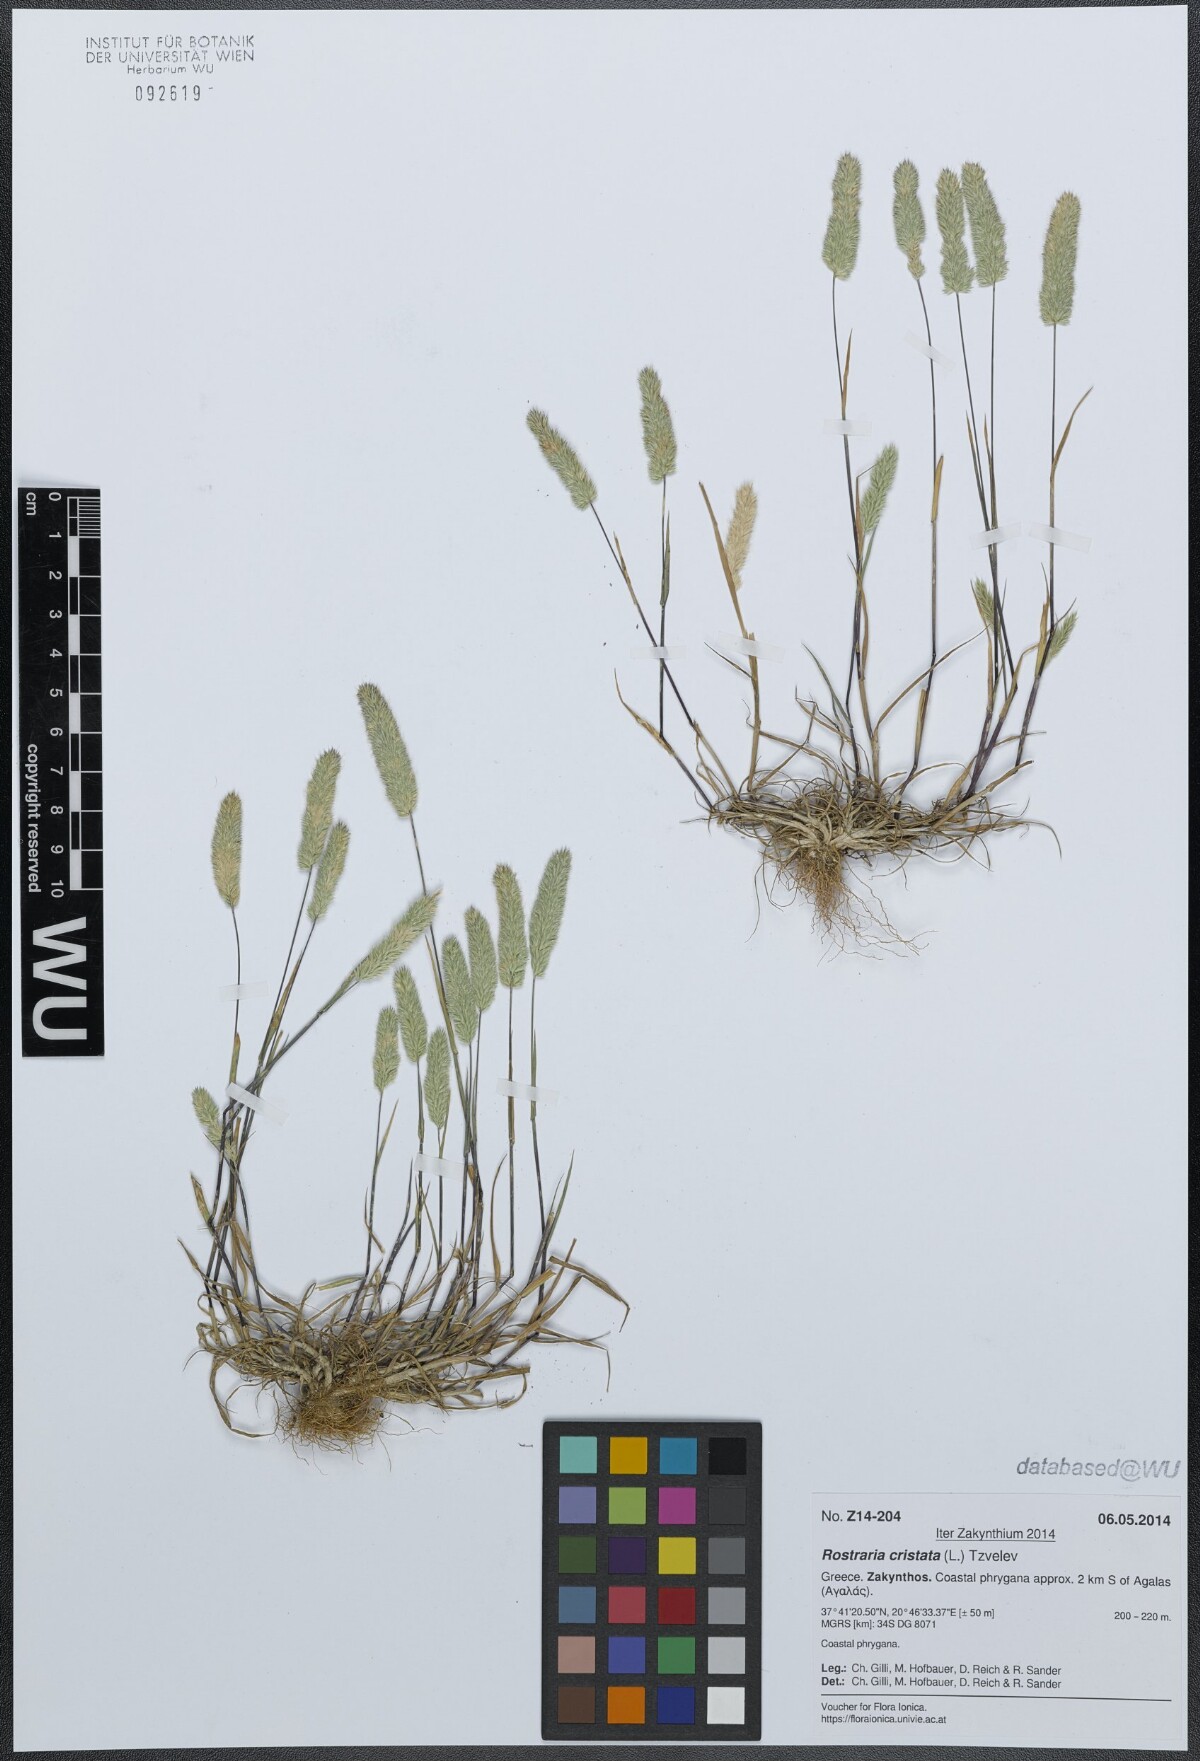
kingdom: Plantae
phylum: Tracheophyta
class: Liliopsida
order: Poales
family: Poaceae
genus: Rostraria
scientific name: Rostraria cristata
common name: Mediterranean hair-grass
